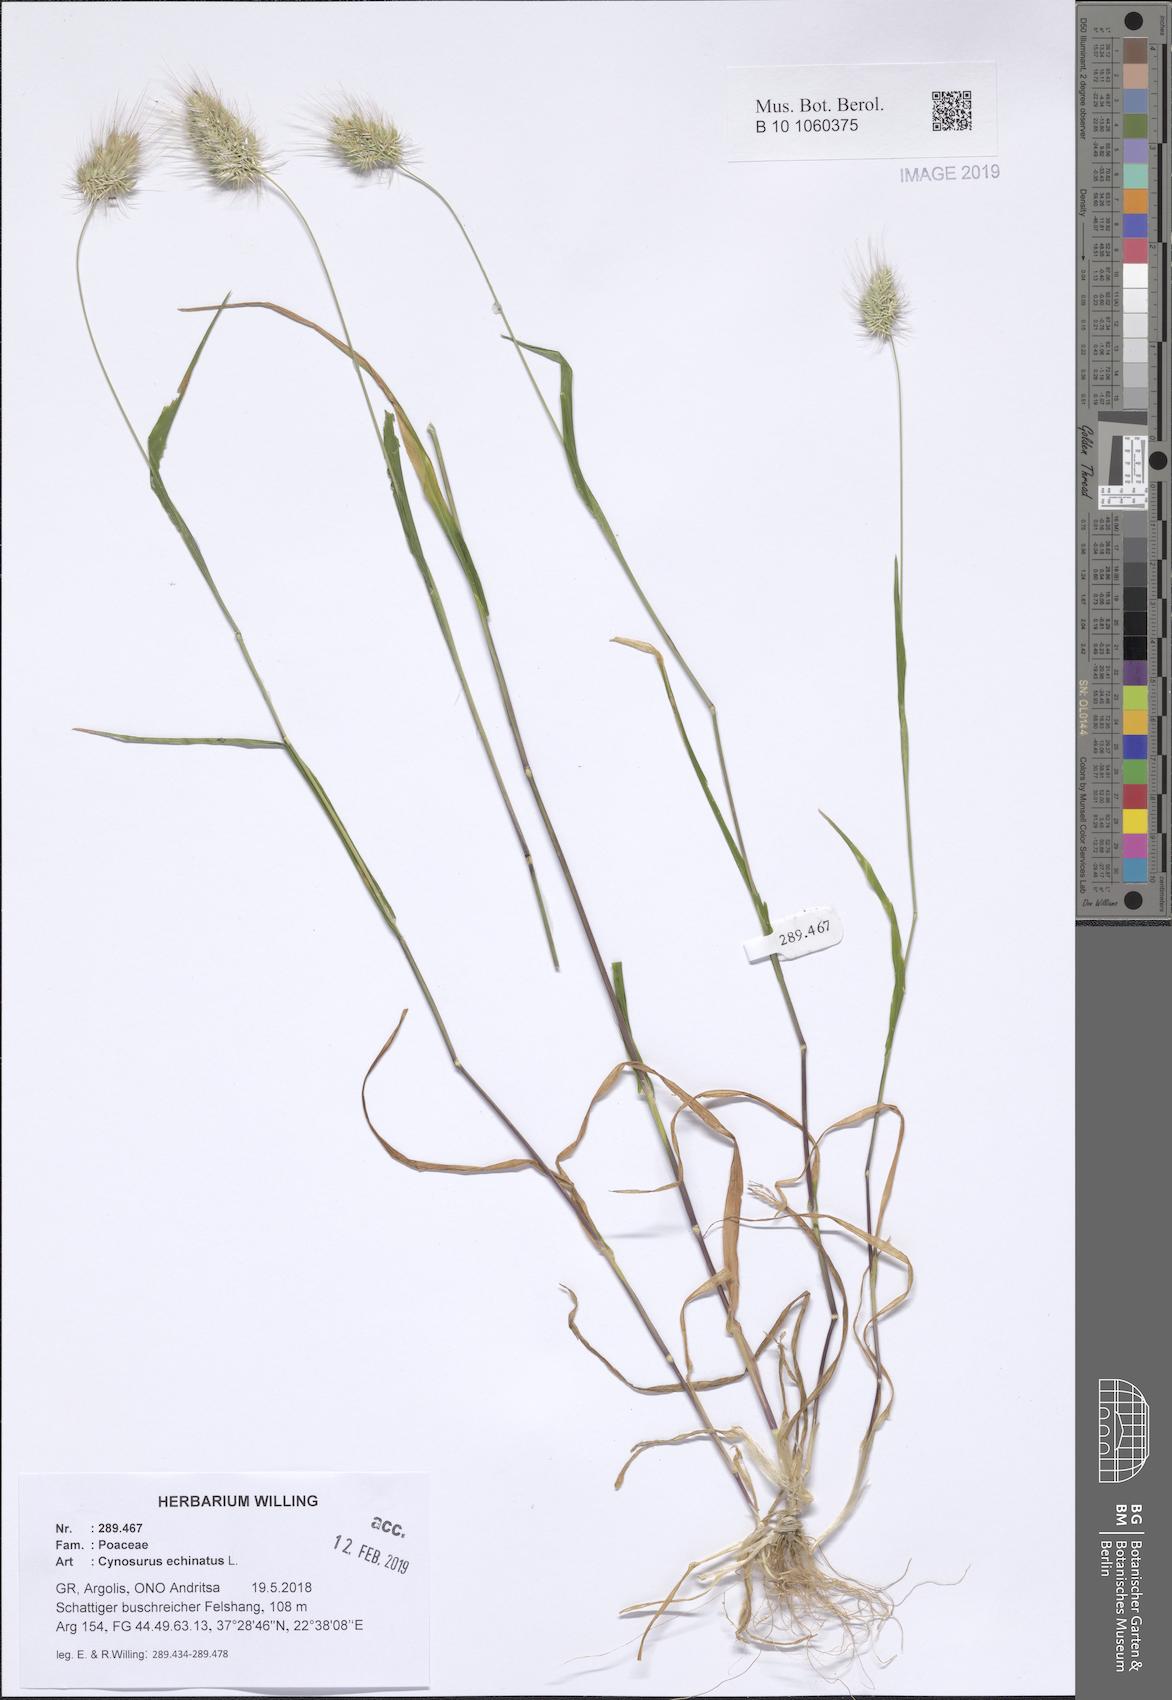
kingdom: Plantae
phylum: Tracheophyta
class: Liliopsida
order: Poales
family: Poaceae
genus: Cynosurus
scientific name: Cynosurus echinatus
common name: Rough dog's-tail
